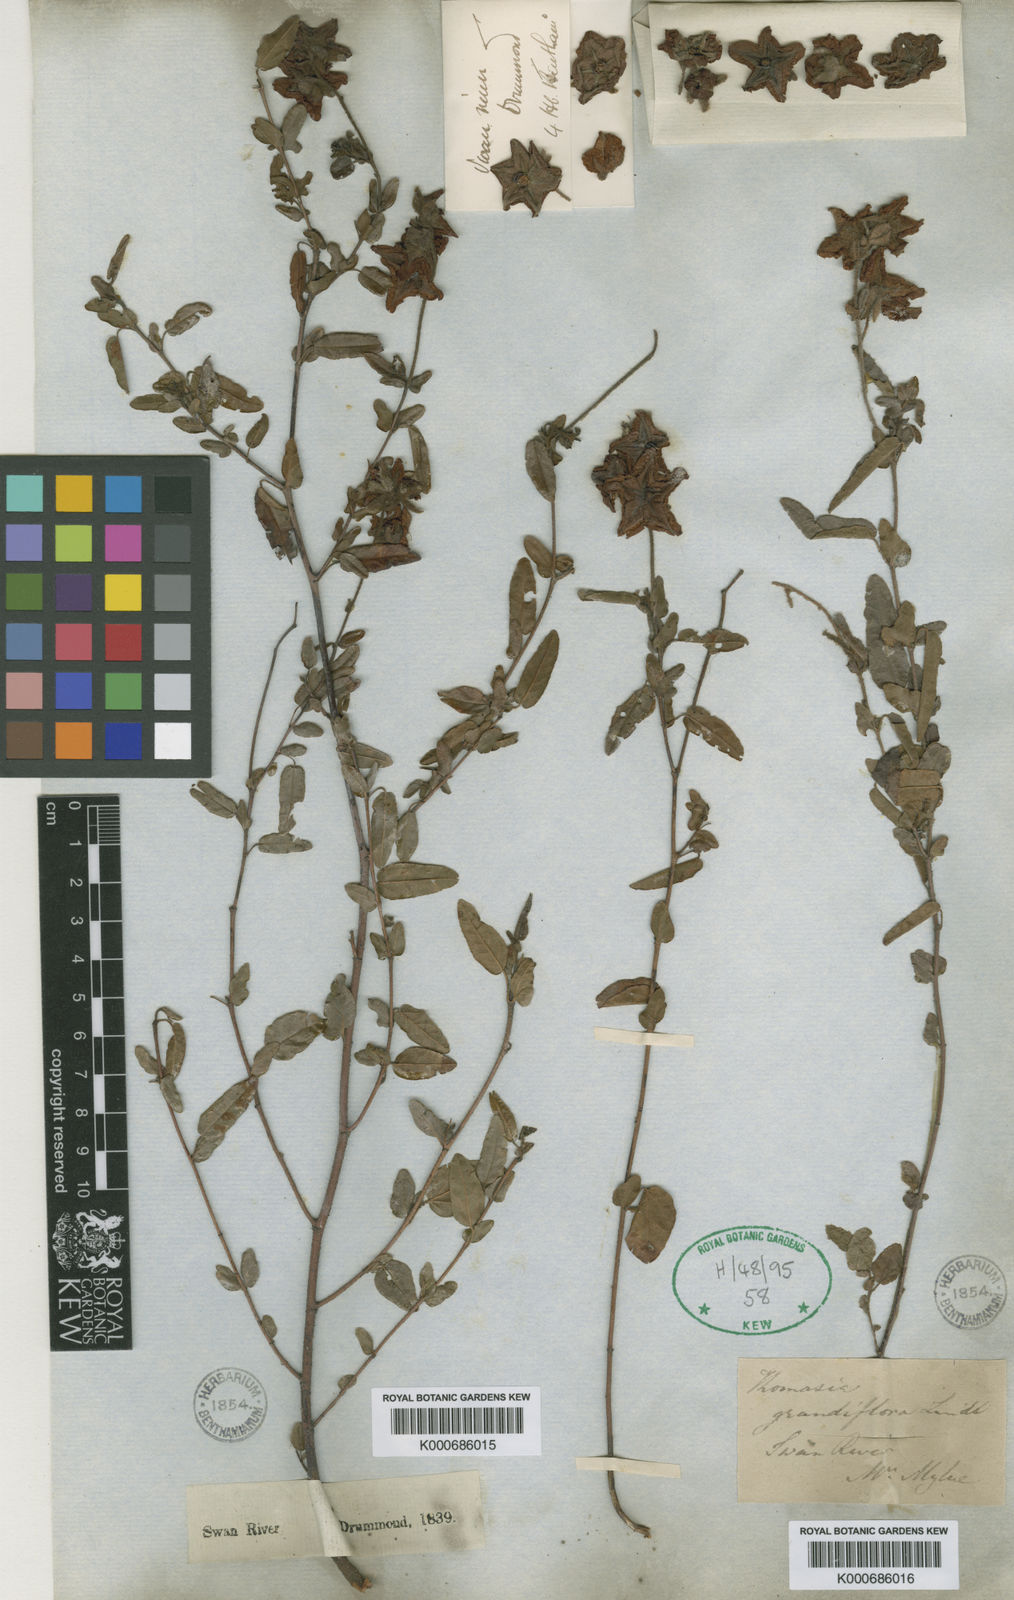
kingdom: Plantae
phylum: Tracheophyta
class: Magnoliopsida
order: Malvales
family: Malvaceae
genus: Thomasia
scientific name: Thomasia grandiflora
